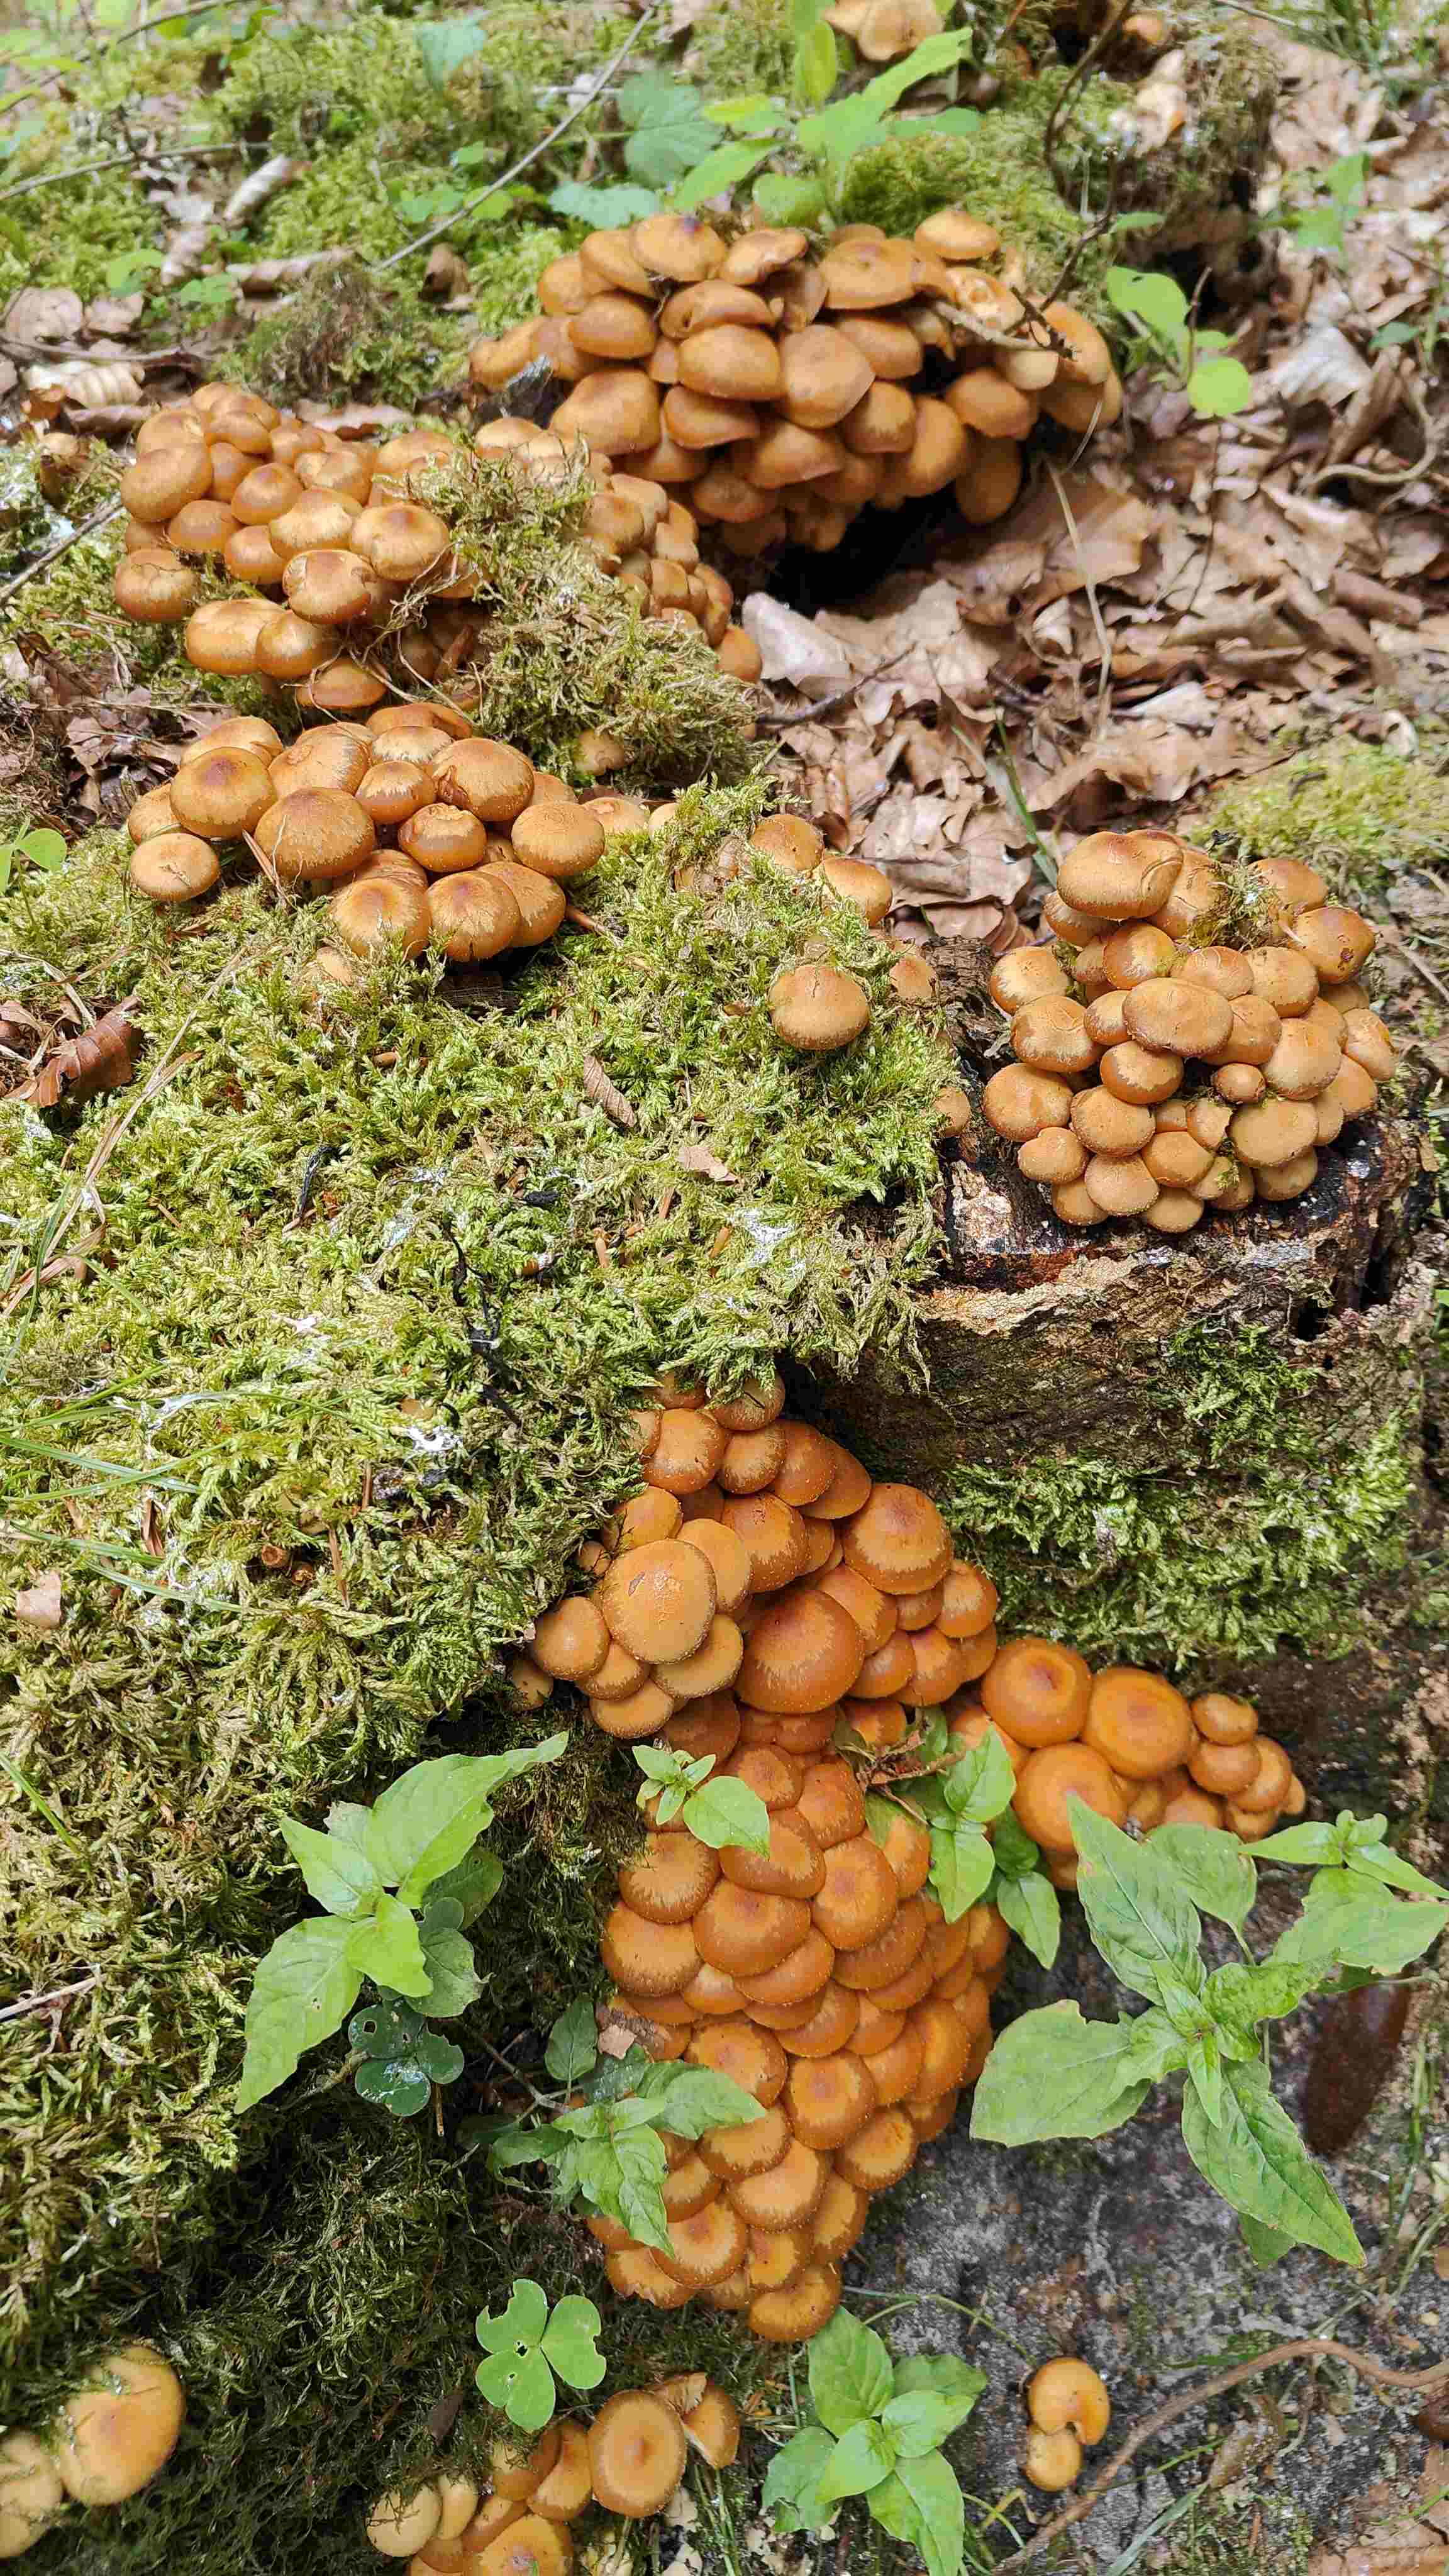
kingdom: Fungi
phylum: Basidiomycota
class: Agaricomycetes
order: Agaricales
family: Strophariaceae
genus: Kuehneromyces
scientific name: Kuehneromyces mutabilis
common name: foranderlig skælhat
